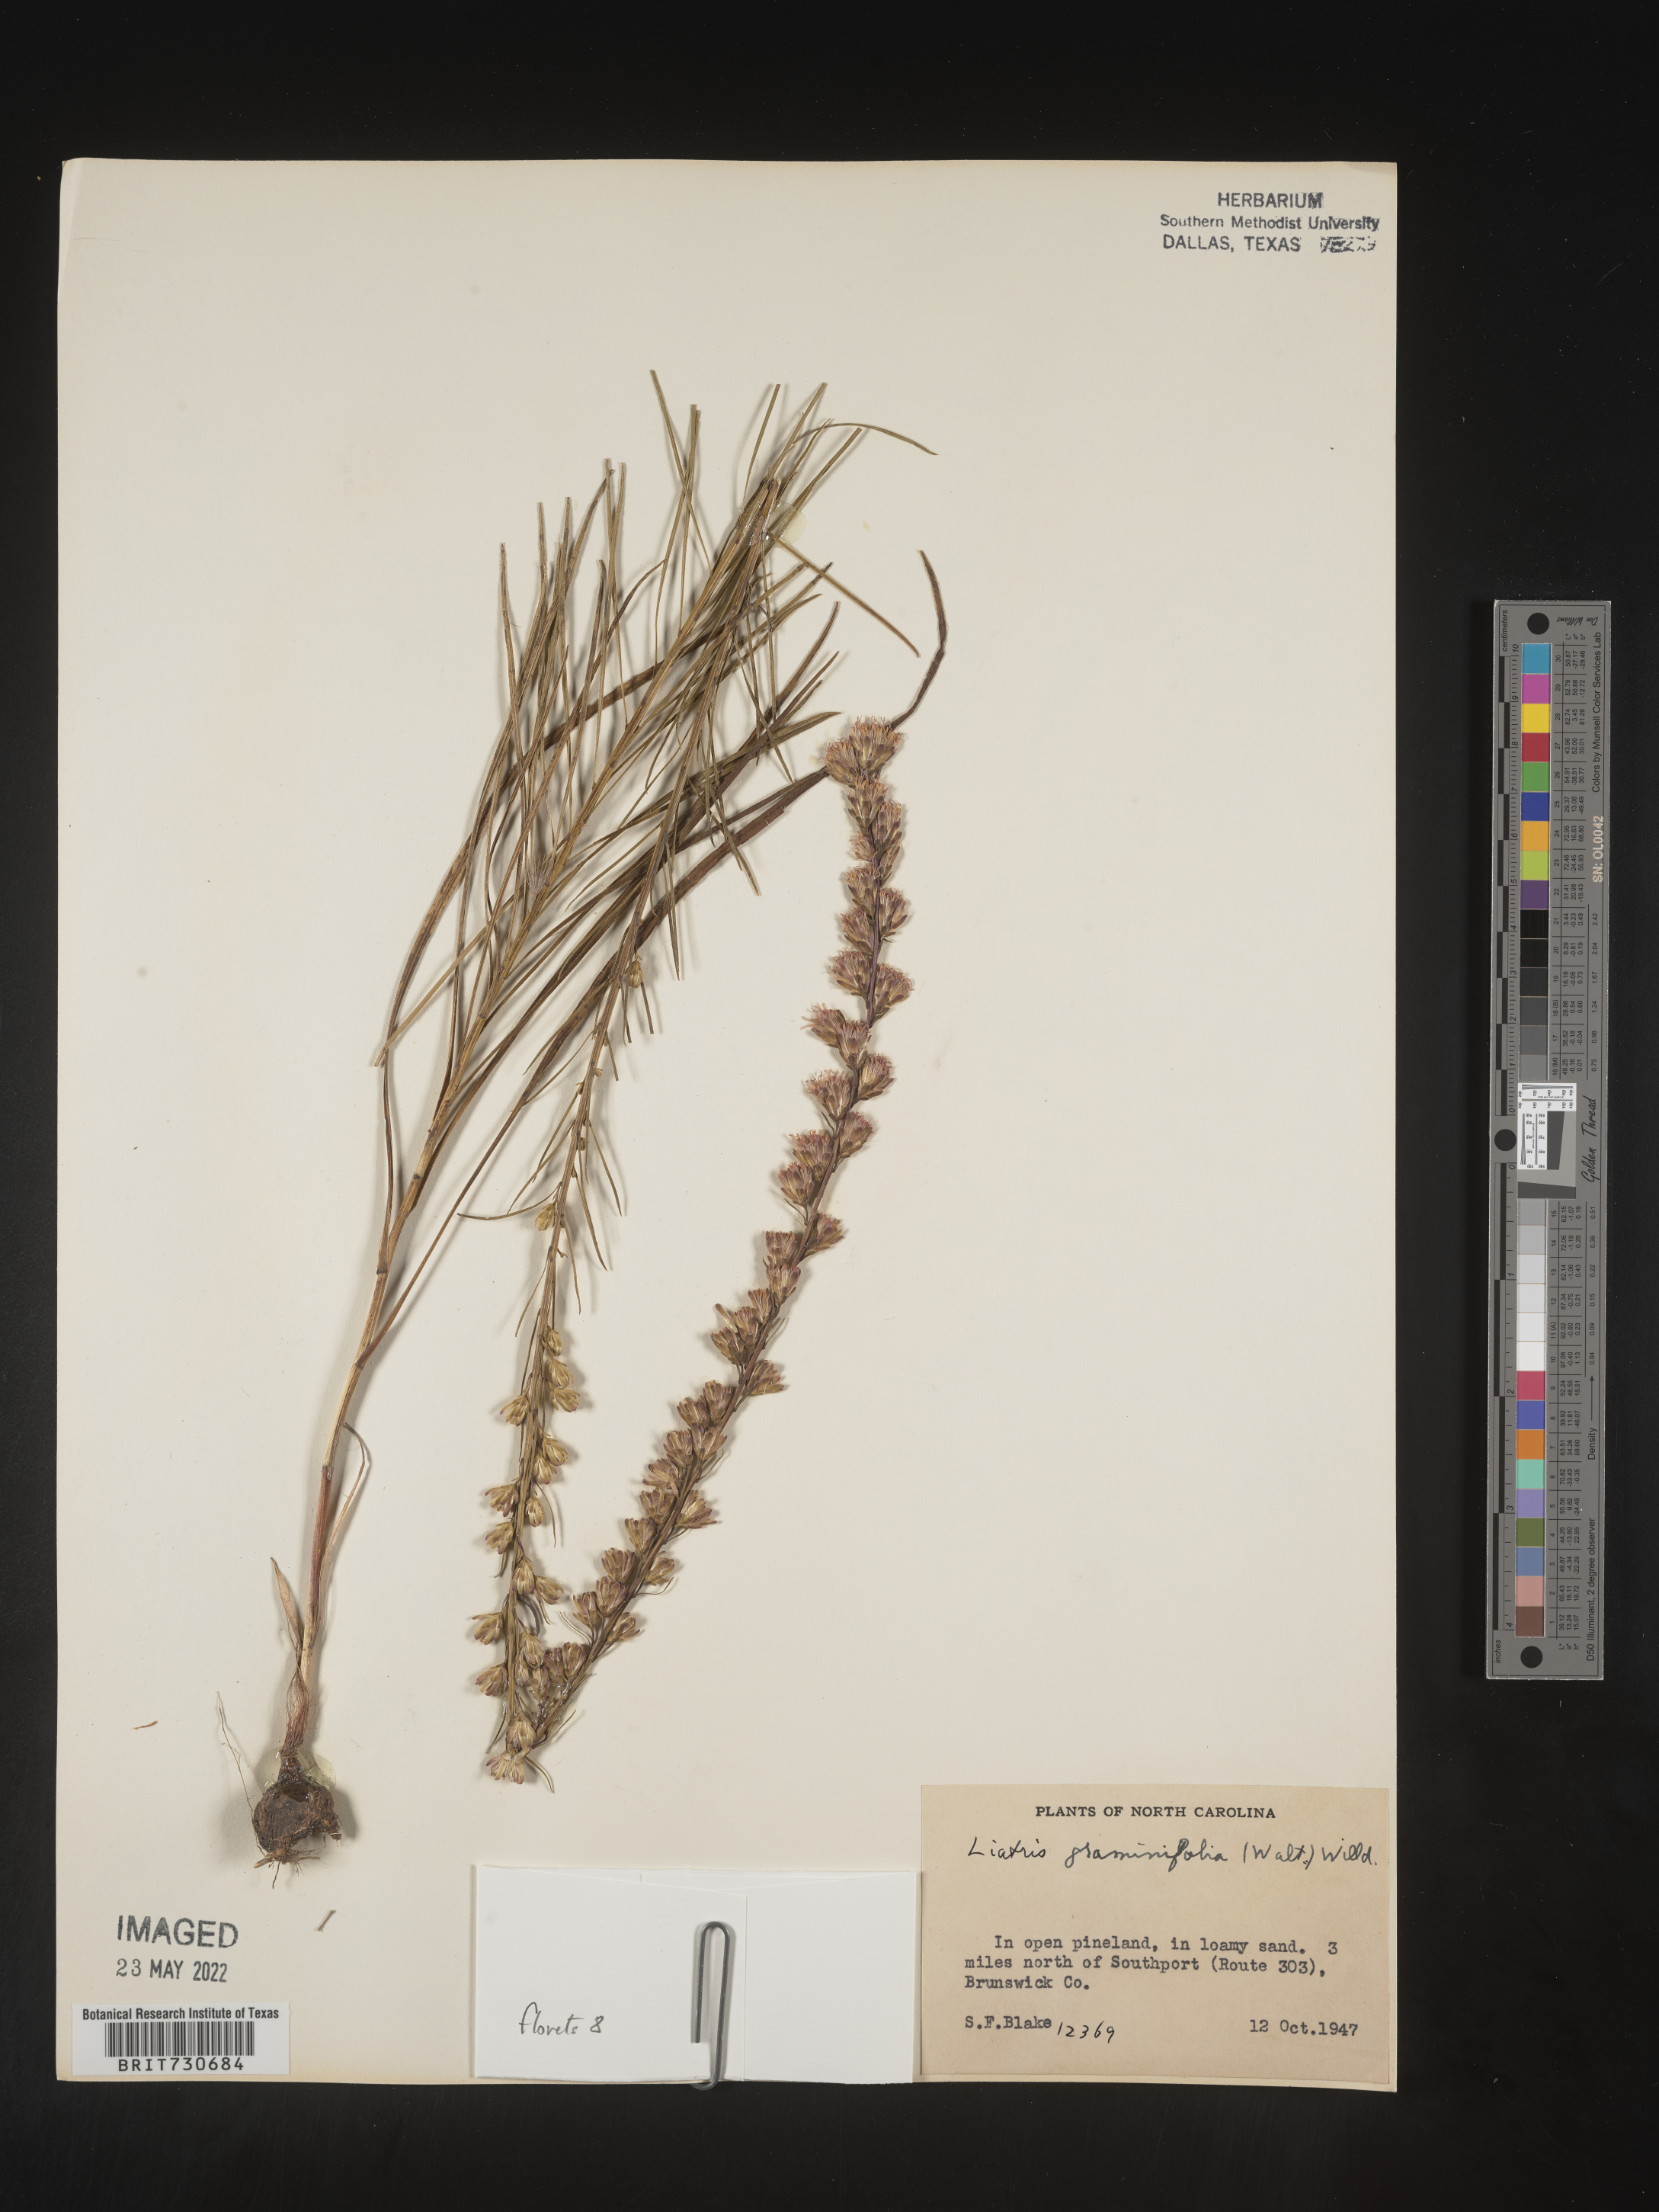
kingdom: Plantae
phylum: Tracheophyta
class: Magnoliopsida
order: Asterales
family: Asteraceae
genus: Liatris
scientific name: Liatris pilosa
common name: Grass-leaf gayfeather
